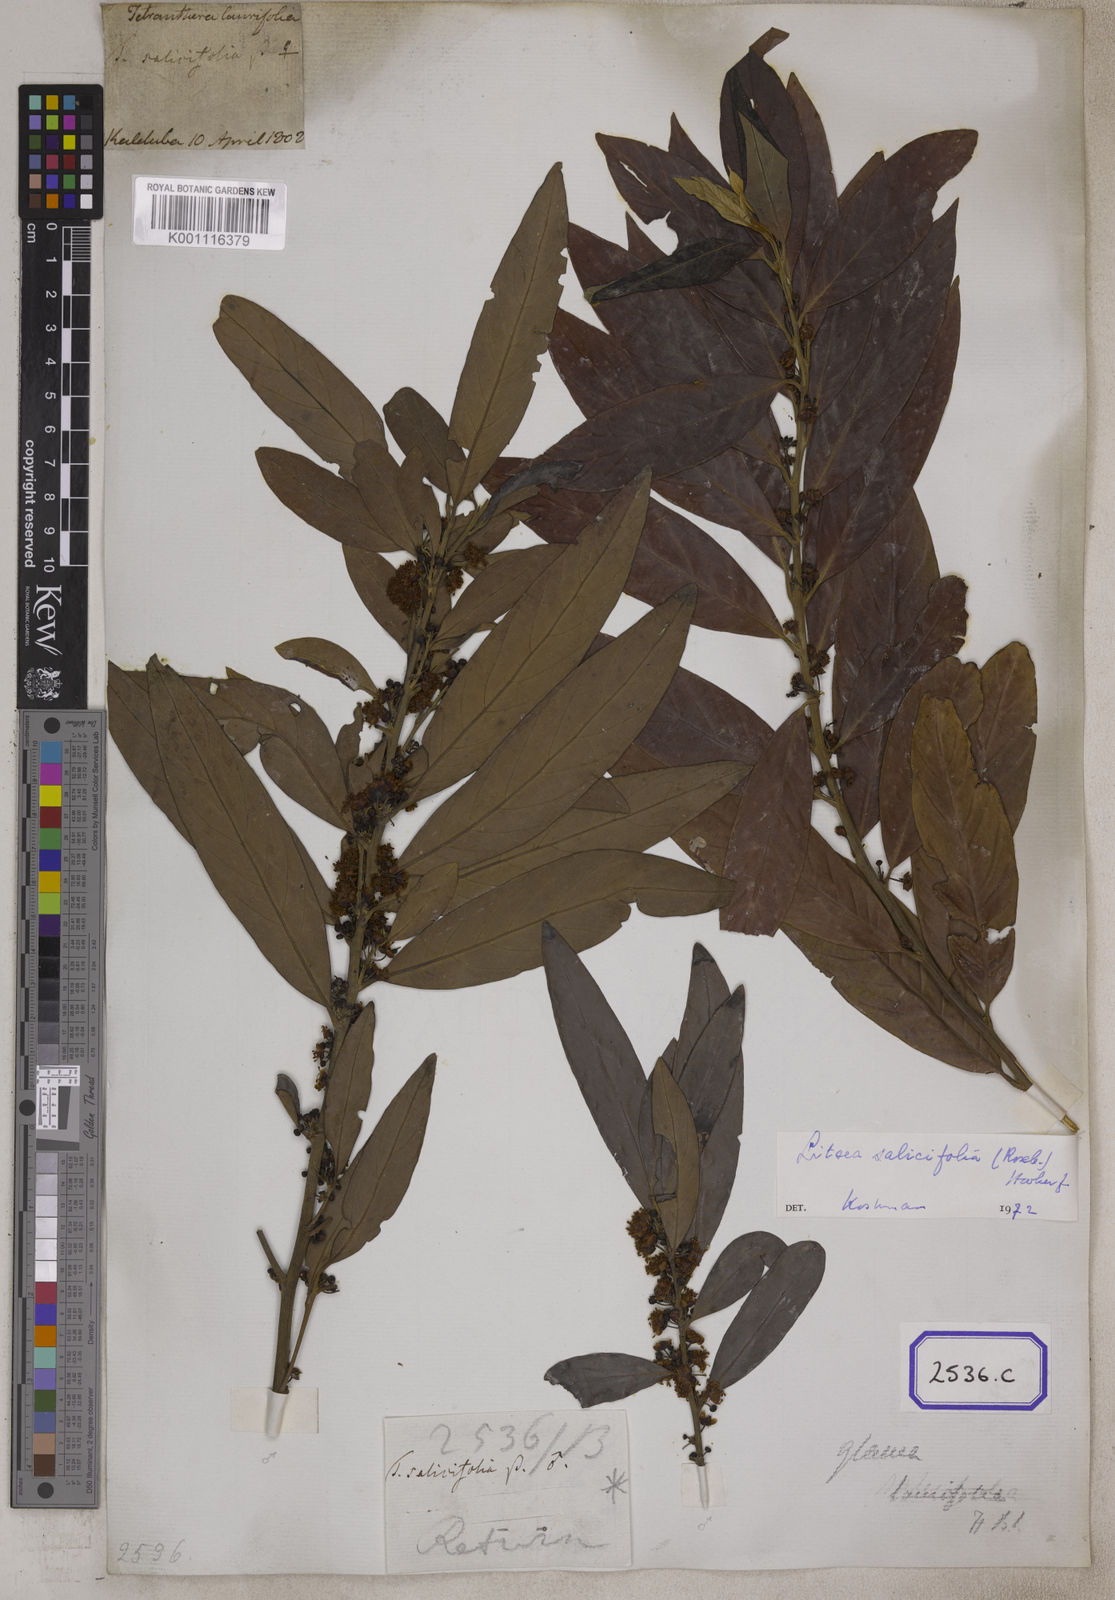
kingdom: Plantae
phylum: Tracheophyta
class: Magnoliopsida
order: Laurales
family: Lauraceae
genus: Litsea
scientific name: Litsea
